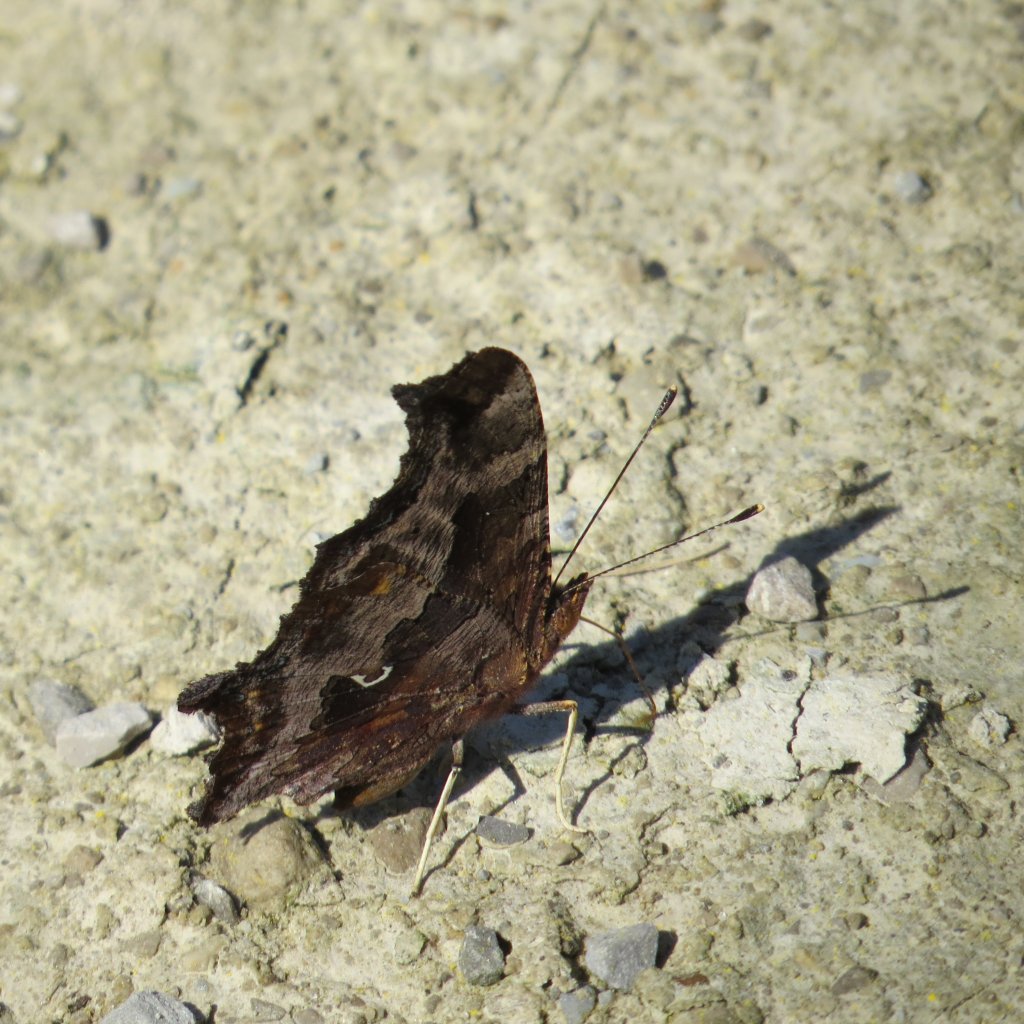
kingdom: Animalia
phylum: Arthropoda
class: Insecta
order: Lepidoptera
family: Nymphalidae
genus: Polygonia
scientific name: Polygonia comma
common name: Eastern Comma
